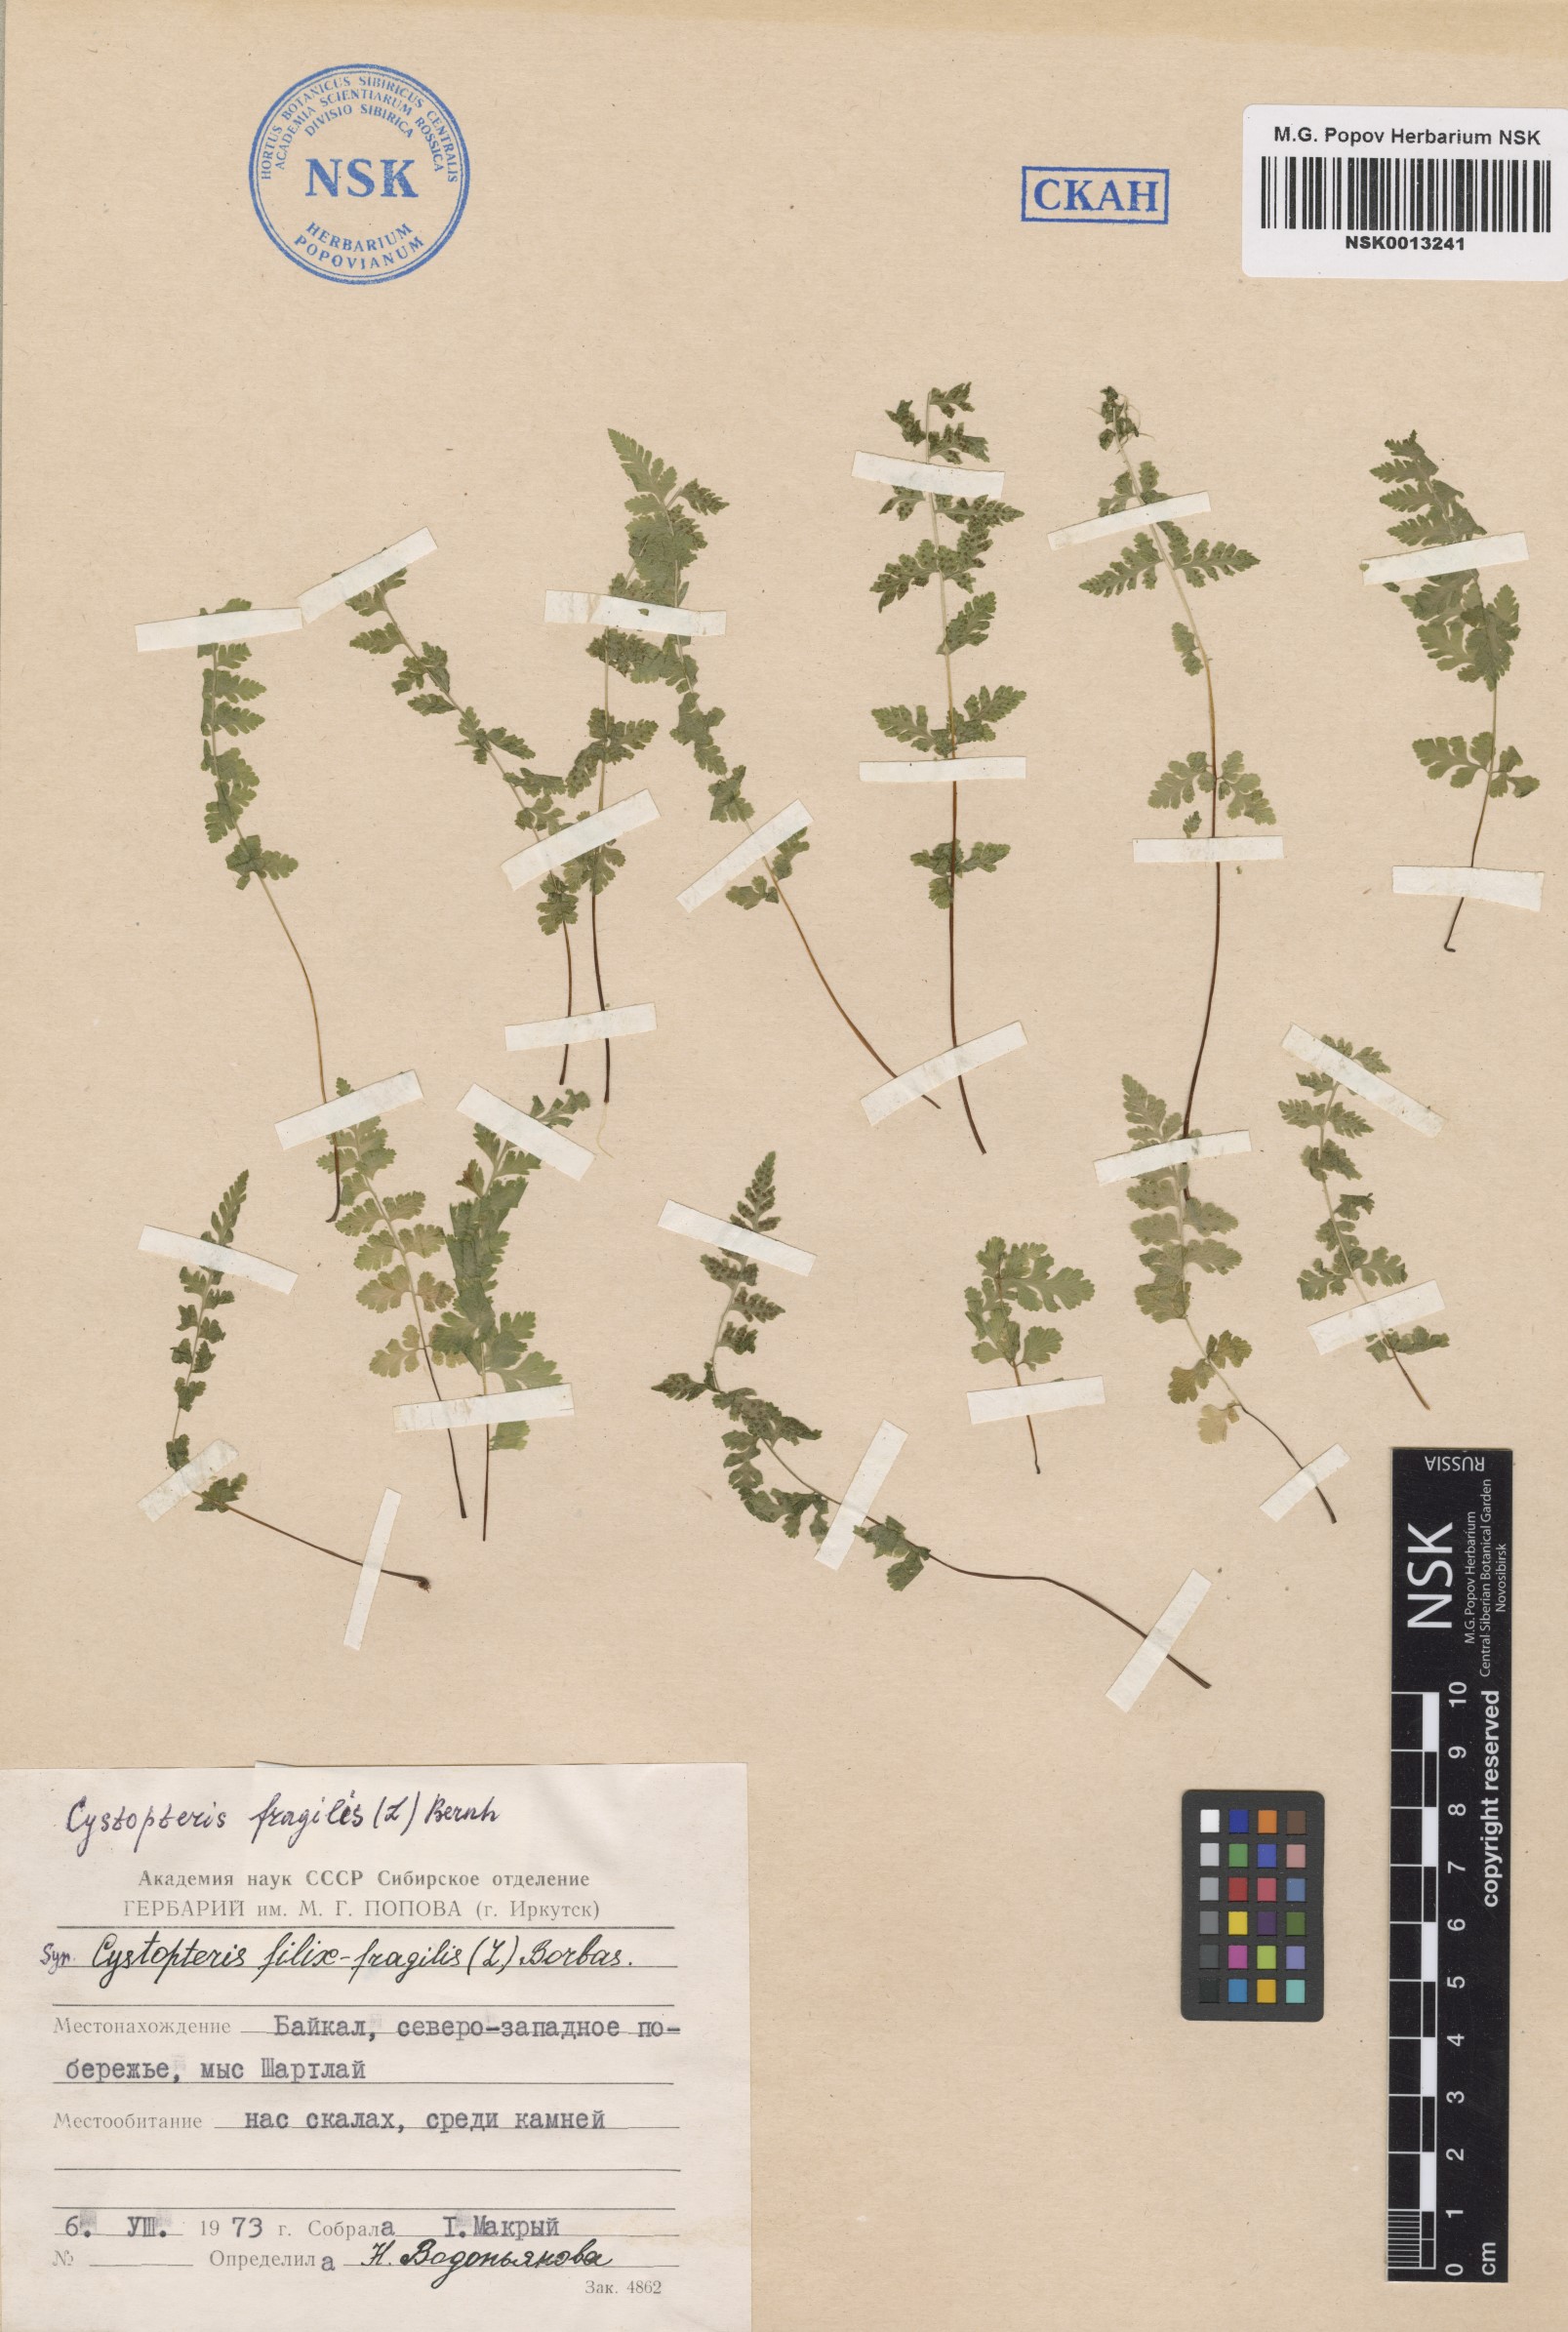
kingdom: Plantae
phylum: Tracheophyta
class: Polypodiopsida
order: Polypodiales
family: Cystopteridaceae
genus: Cystopteris
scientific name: Cystopteris fragilis
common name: Brittle bladder fern
